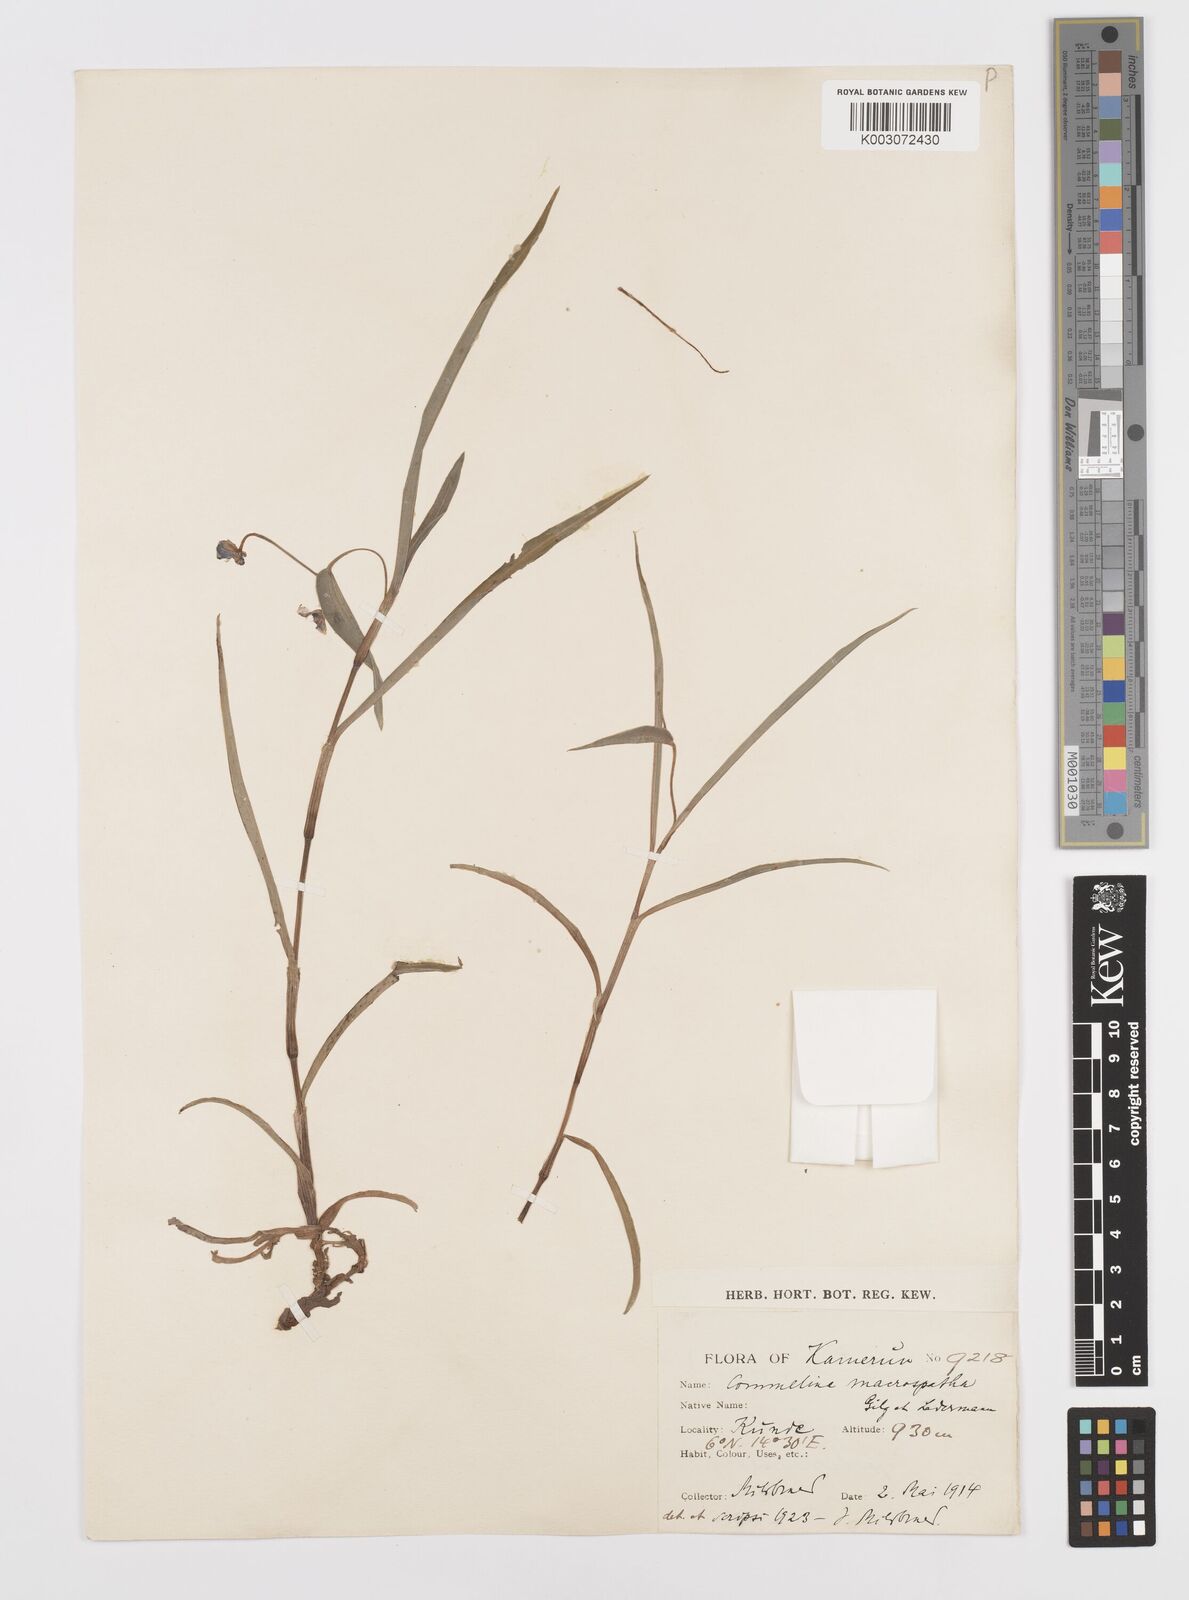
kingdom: Plantae
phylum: Tracheophyta
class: Liliopsida
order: Commelinales
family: Commelinaceae
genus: Commelina
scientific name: Commelina macrospatha
